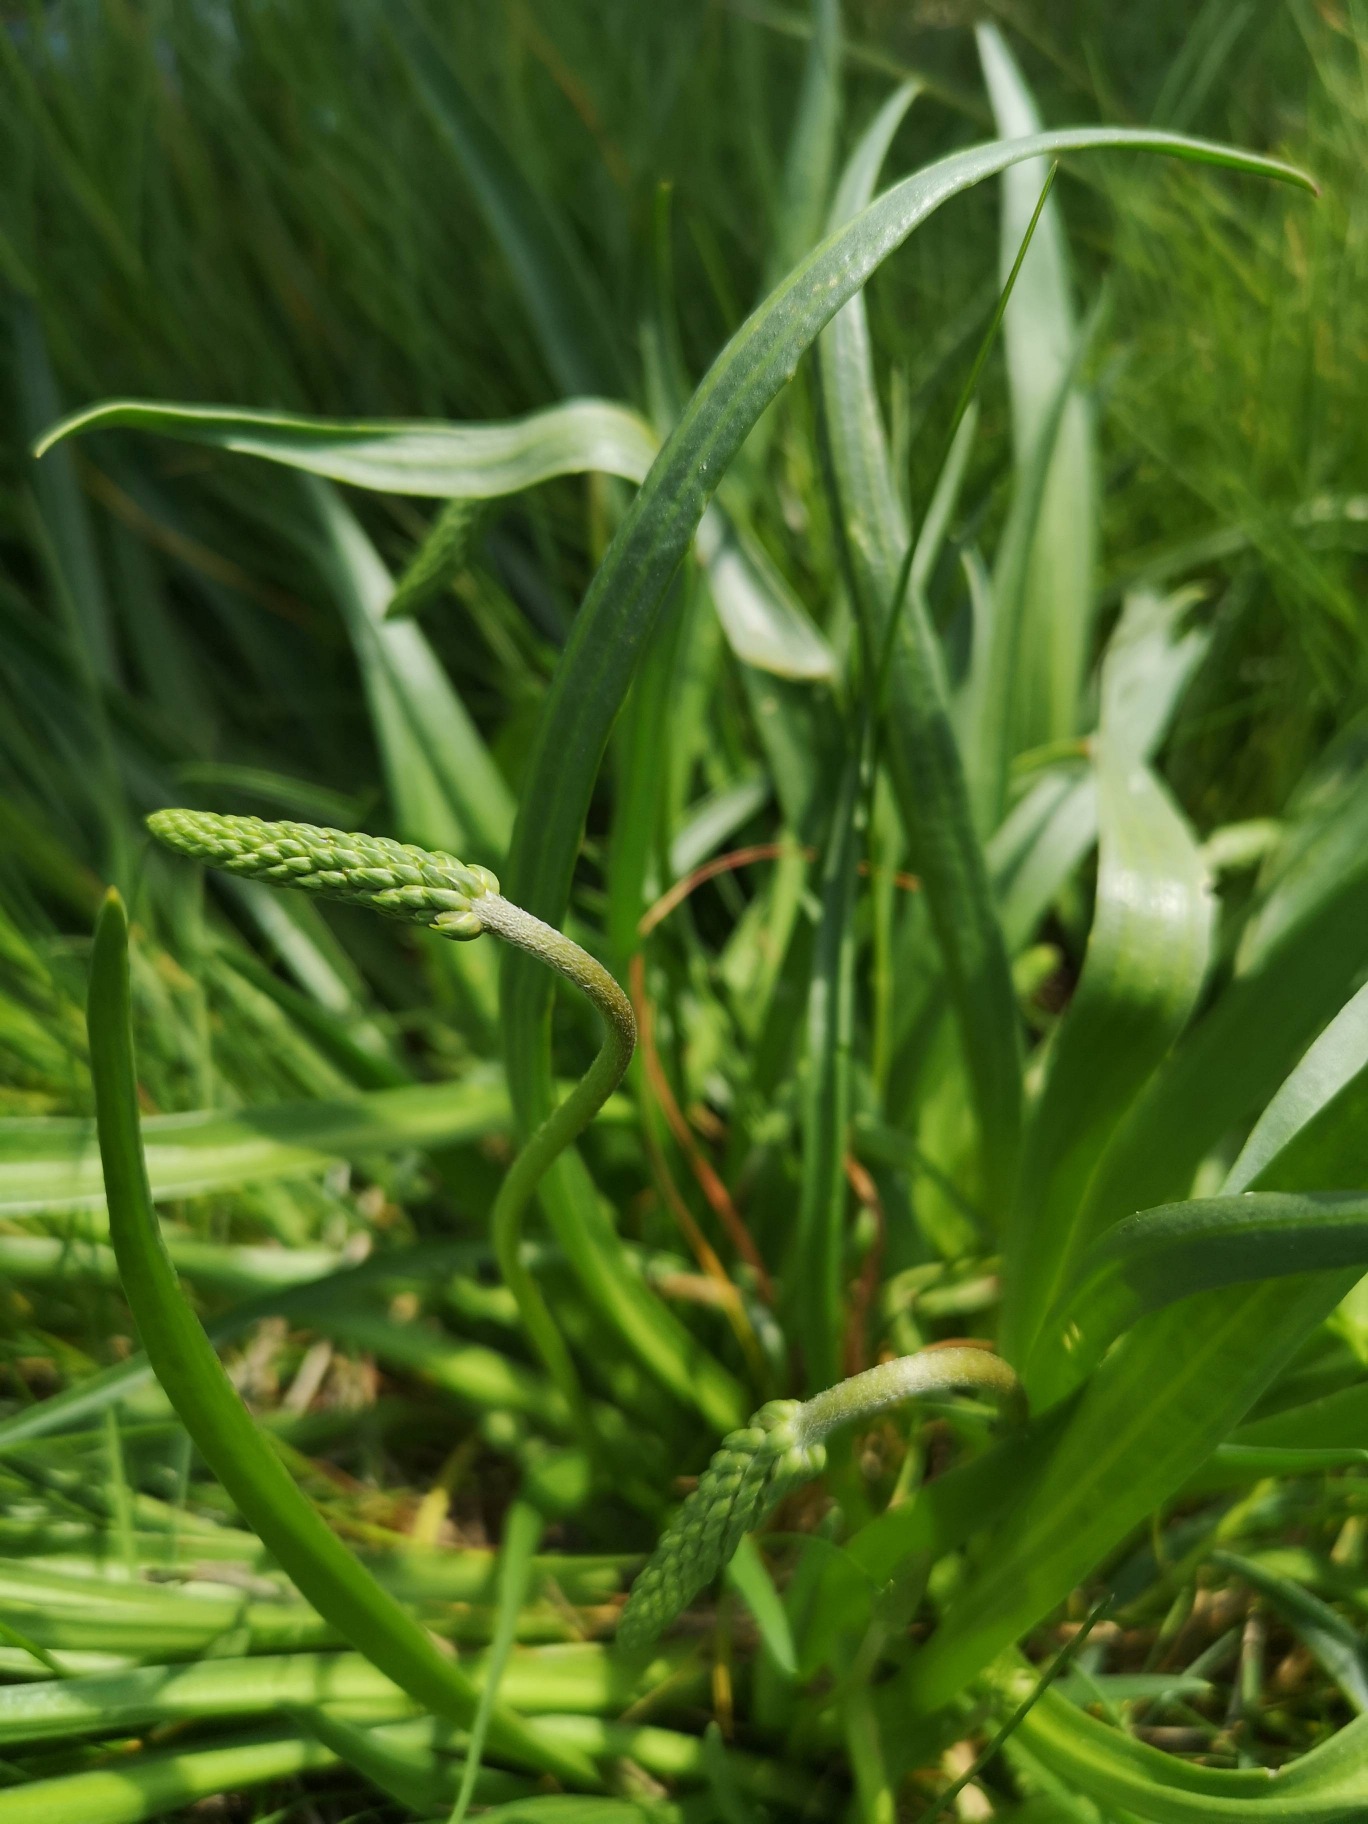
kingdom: Plantae
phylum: Tracheophyta
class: Magnoliopsida
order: Lamiales
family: Plantaginaceae
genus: Plantago
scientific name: Plantago maritima
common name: Strand-vejbred
